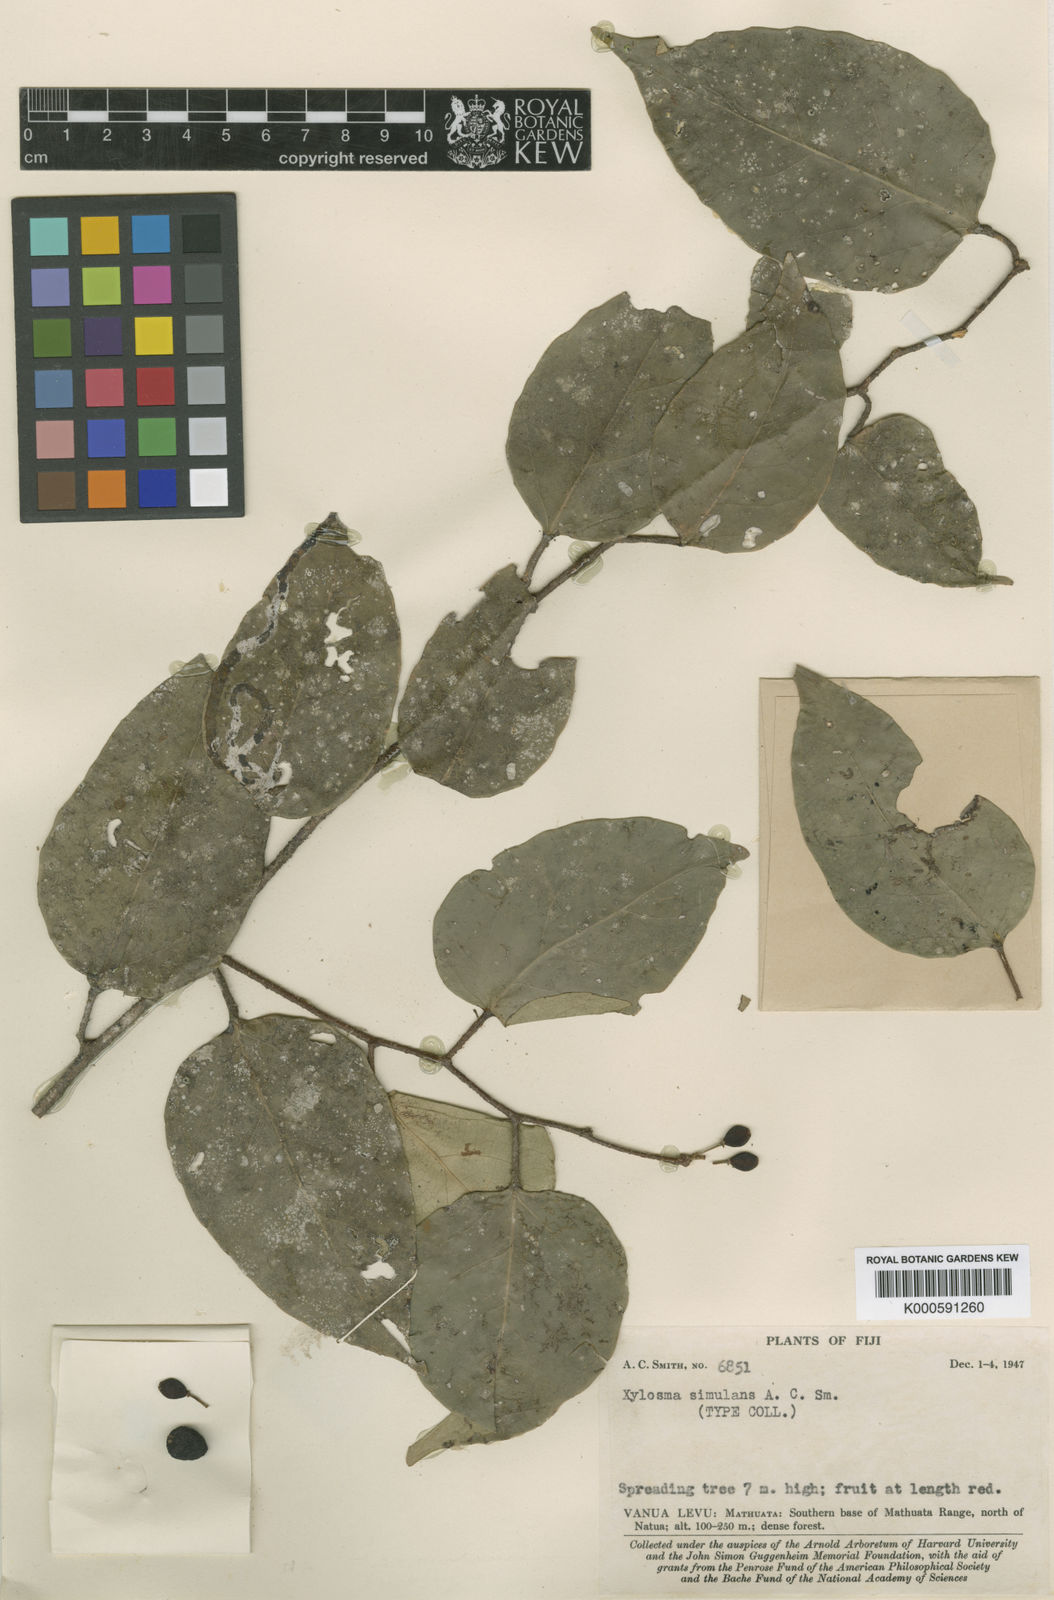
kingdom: Plantae
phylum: Tracheophyta
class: Magnoliopsida
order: Malpighiales
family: Salicaceae
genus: Xylosma
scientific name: Xylosma simulans
